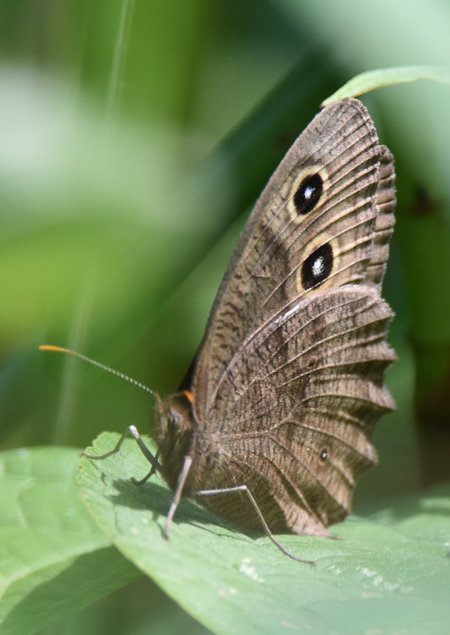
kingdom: Animalia
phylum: Arthropoda
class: Insecta
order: Lepidoptera
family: Nymphalidae
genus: Cercyonis
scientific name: Cercyonis pegala
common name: Common Wood-Nymph
